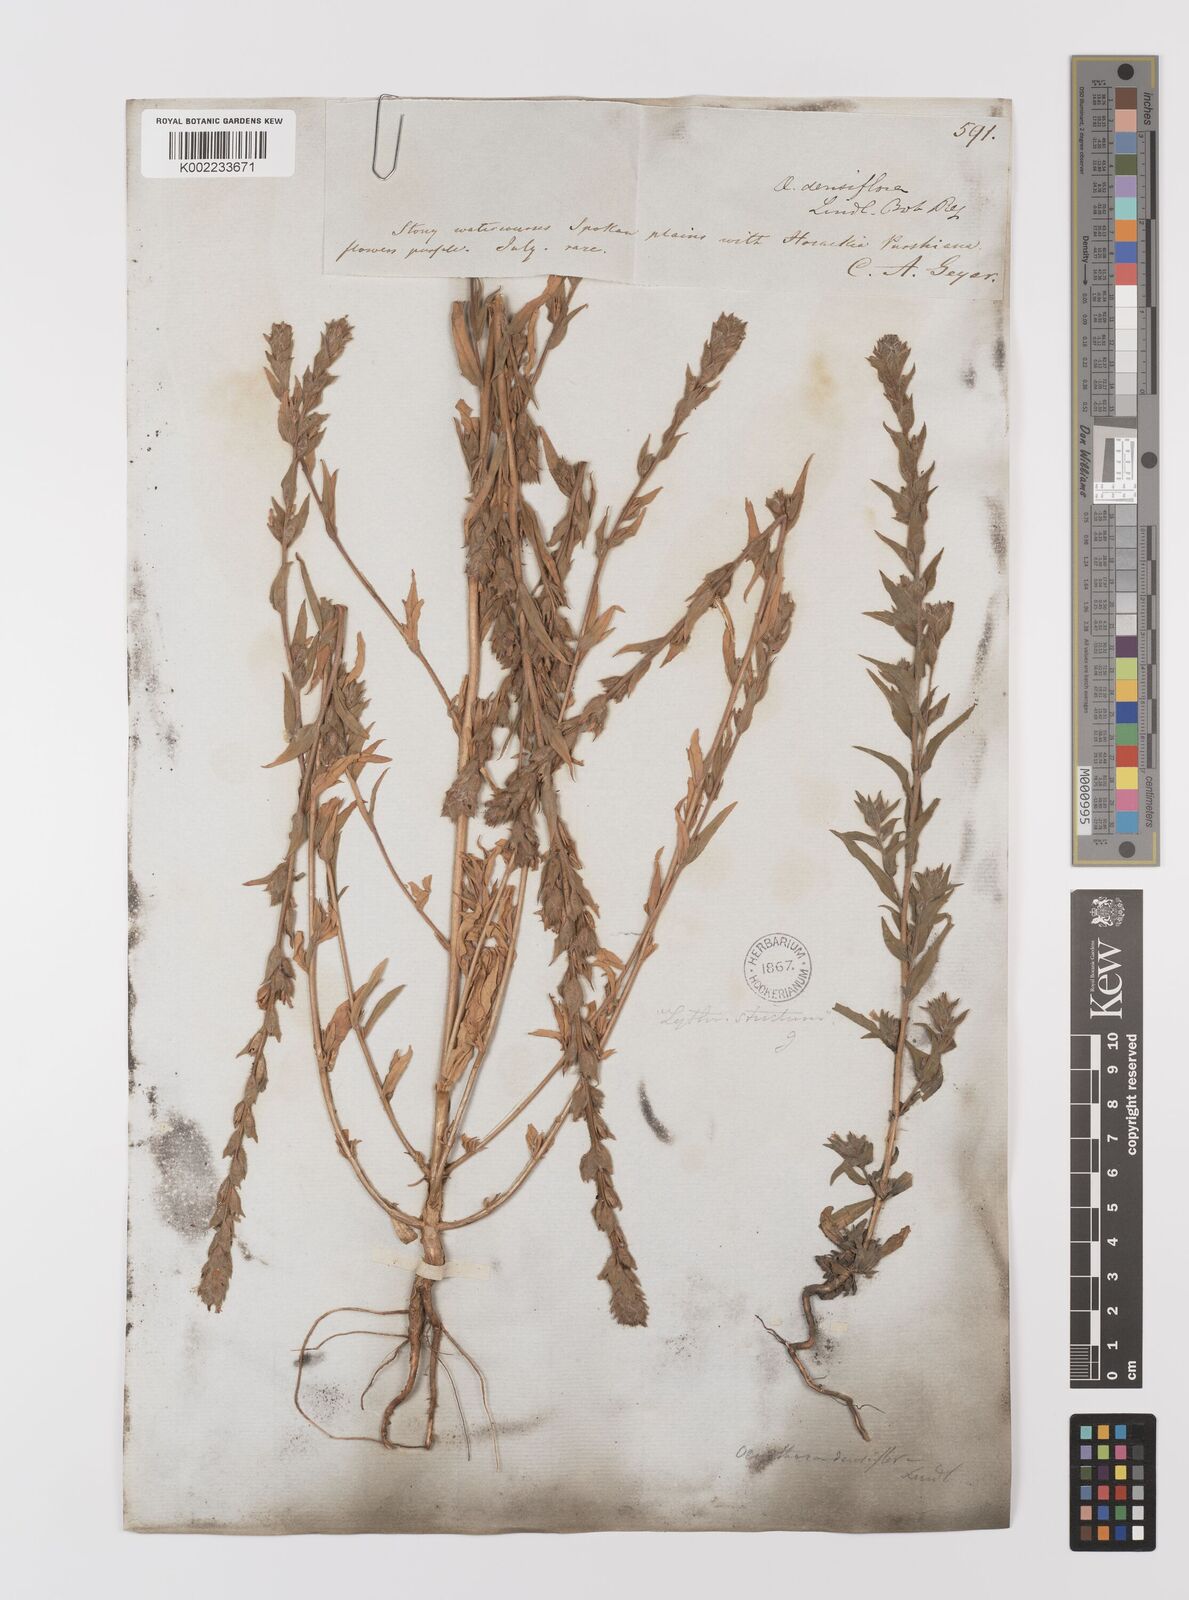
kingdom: Plantae
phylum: Tracheophyta
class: Magnoliopsida
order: Myrtales
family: Onagraceae
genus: Epilobium
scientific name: Epilobium densiflorum
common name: Dense spike-primrose
